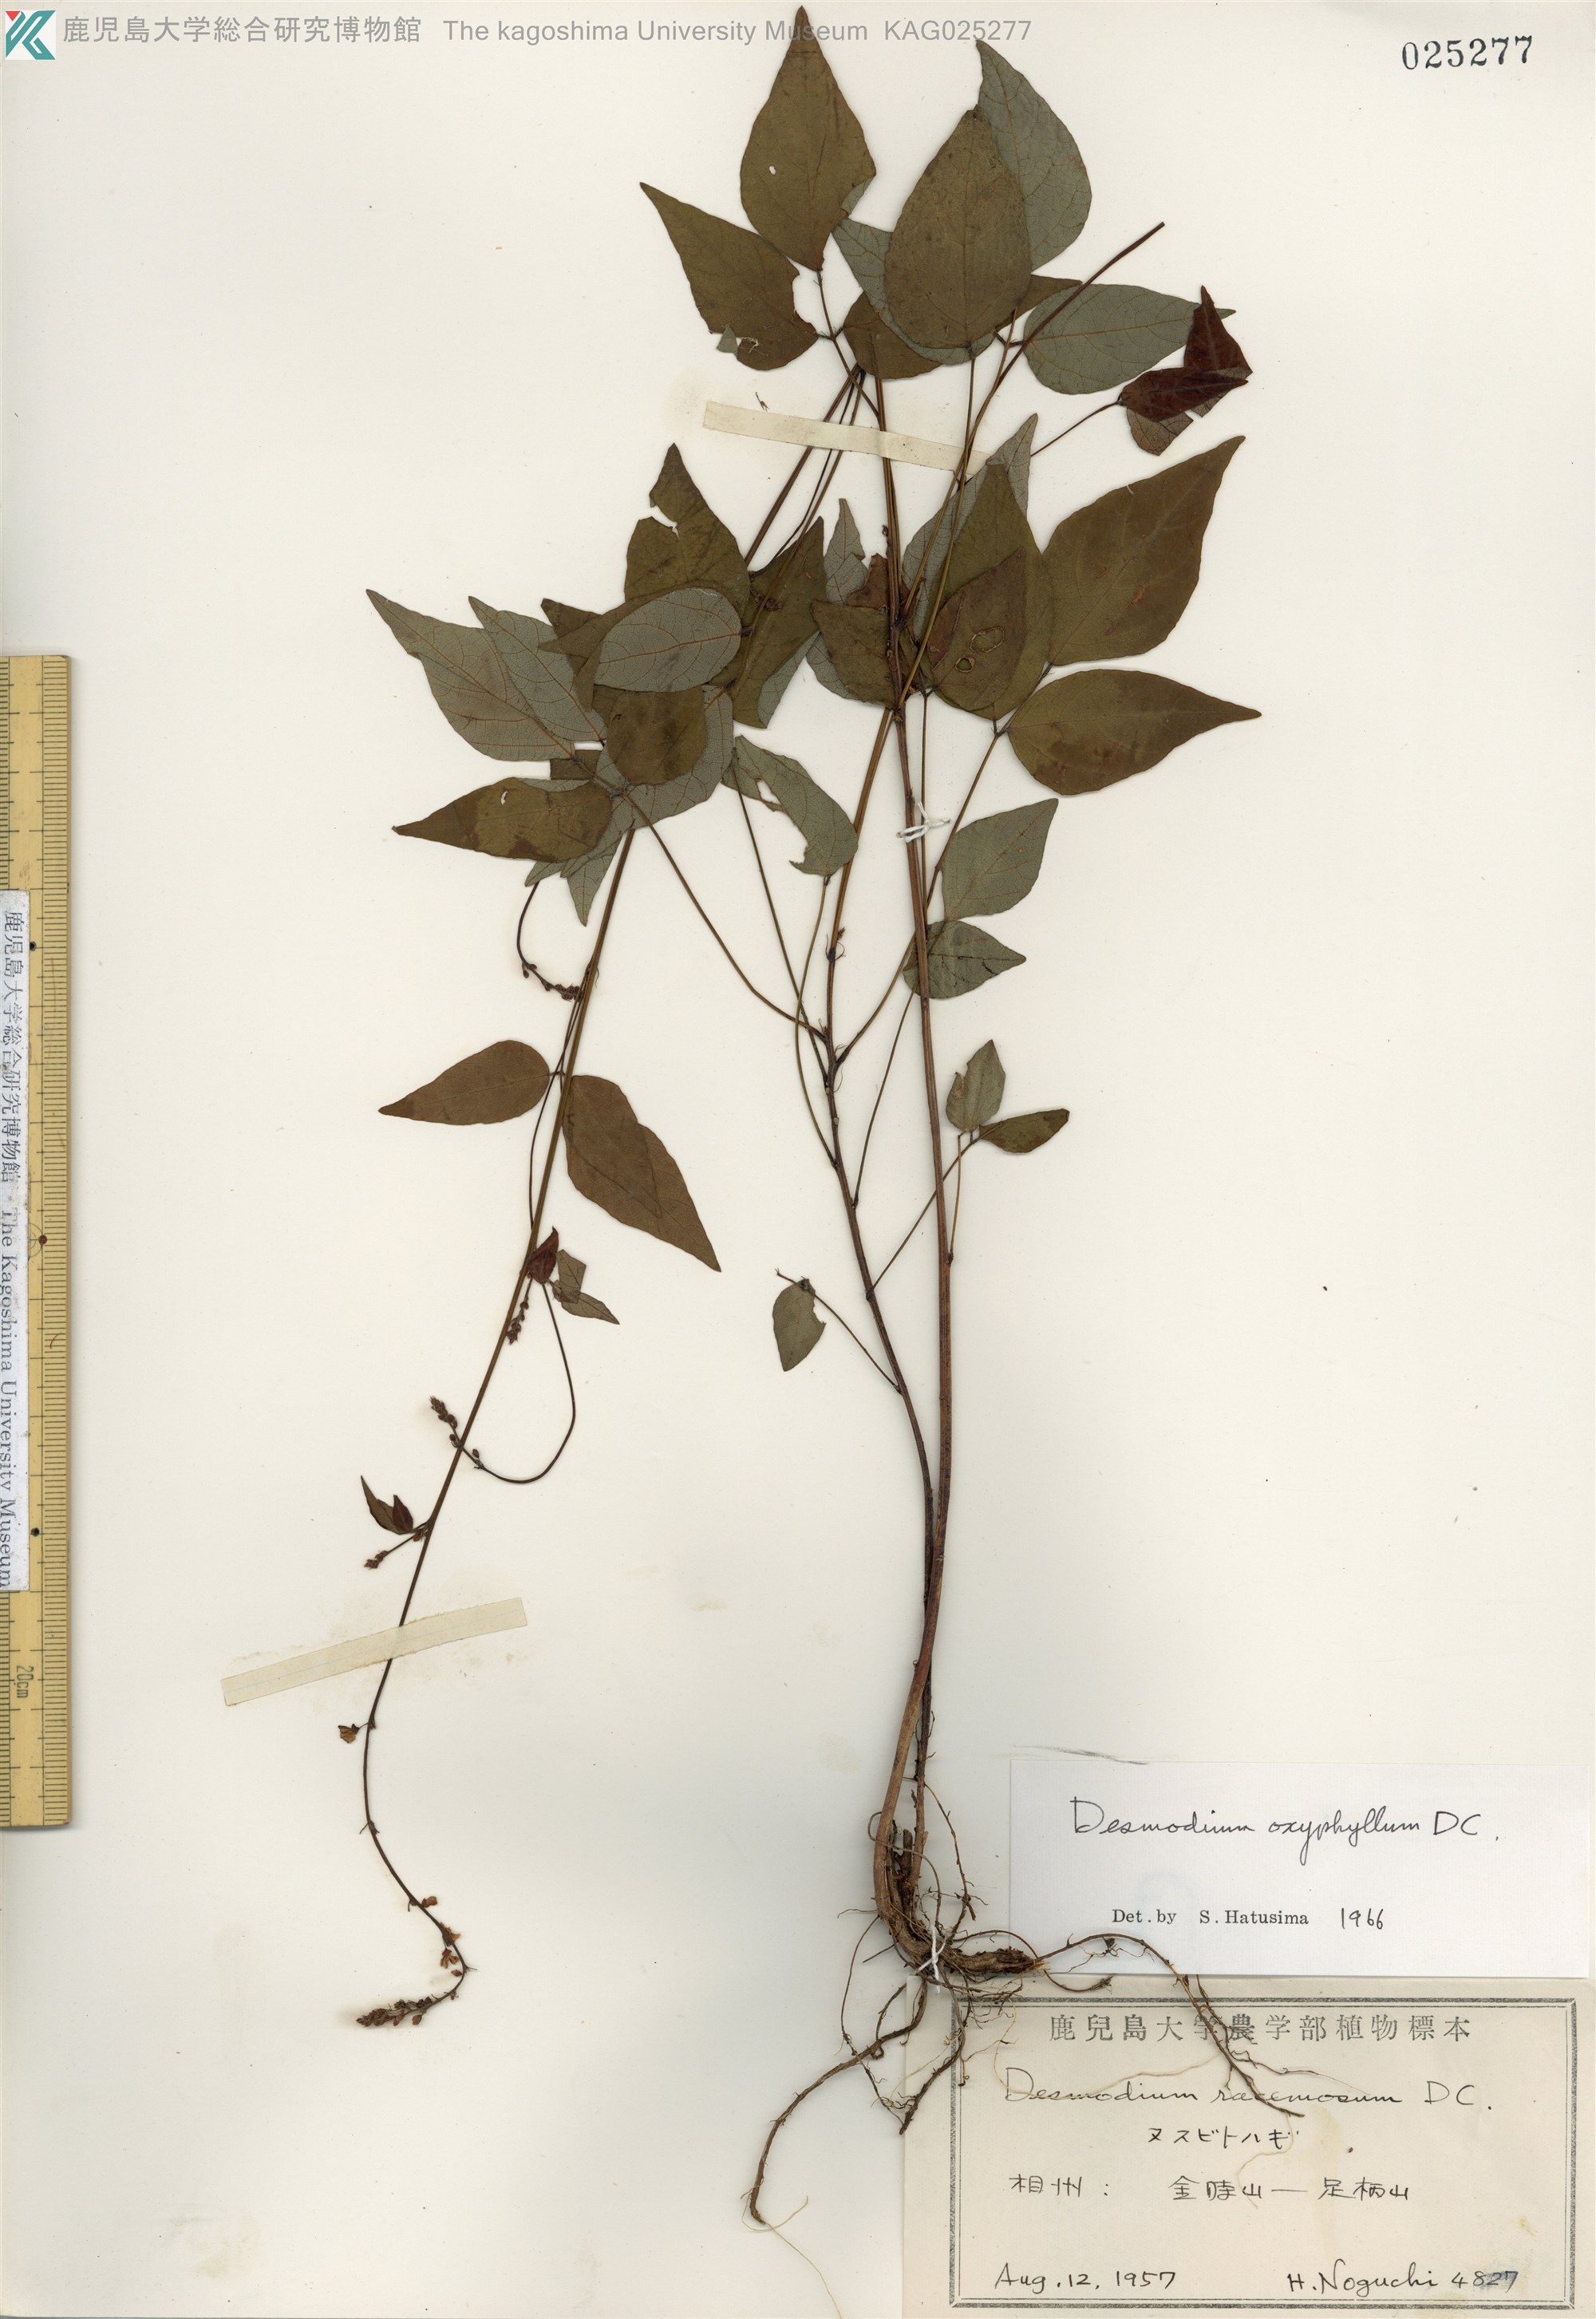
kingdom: Plantae
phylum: Tracheophyta
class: Magnoliopsida
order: Fabales
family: Fabaceae
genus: Hylodesmum
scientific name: Hylodesmum podocarpum
